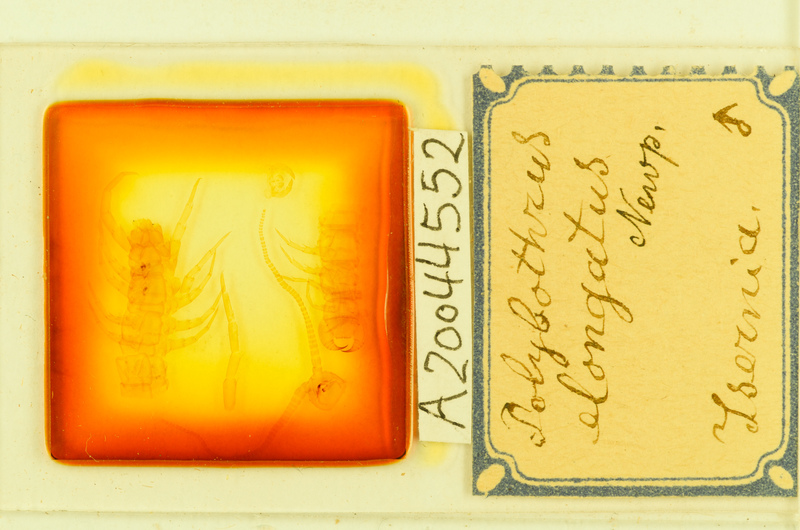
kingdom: Animalia
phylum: Arthropoda
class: Chilopoda
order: Lithobiomorpha
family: Lithobiidae
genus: Polybothrus
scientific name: Polybothrus
